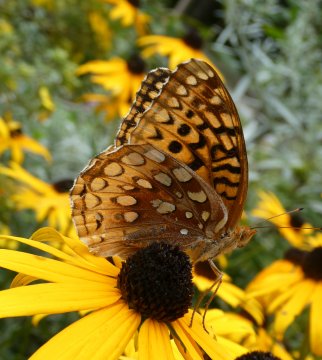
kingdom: Animalia
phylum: Arthropoda
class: Insecta
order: Lepidoptera
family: Nymphalidae
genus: Speyeria
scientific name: Speyeria cybele
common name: Great Spangled Fritillary
